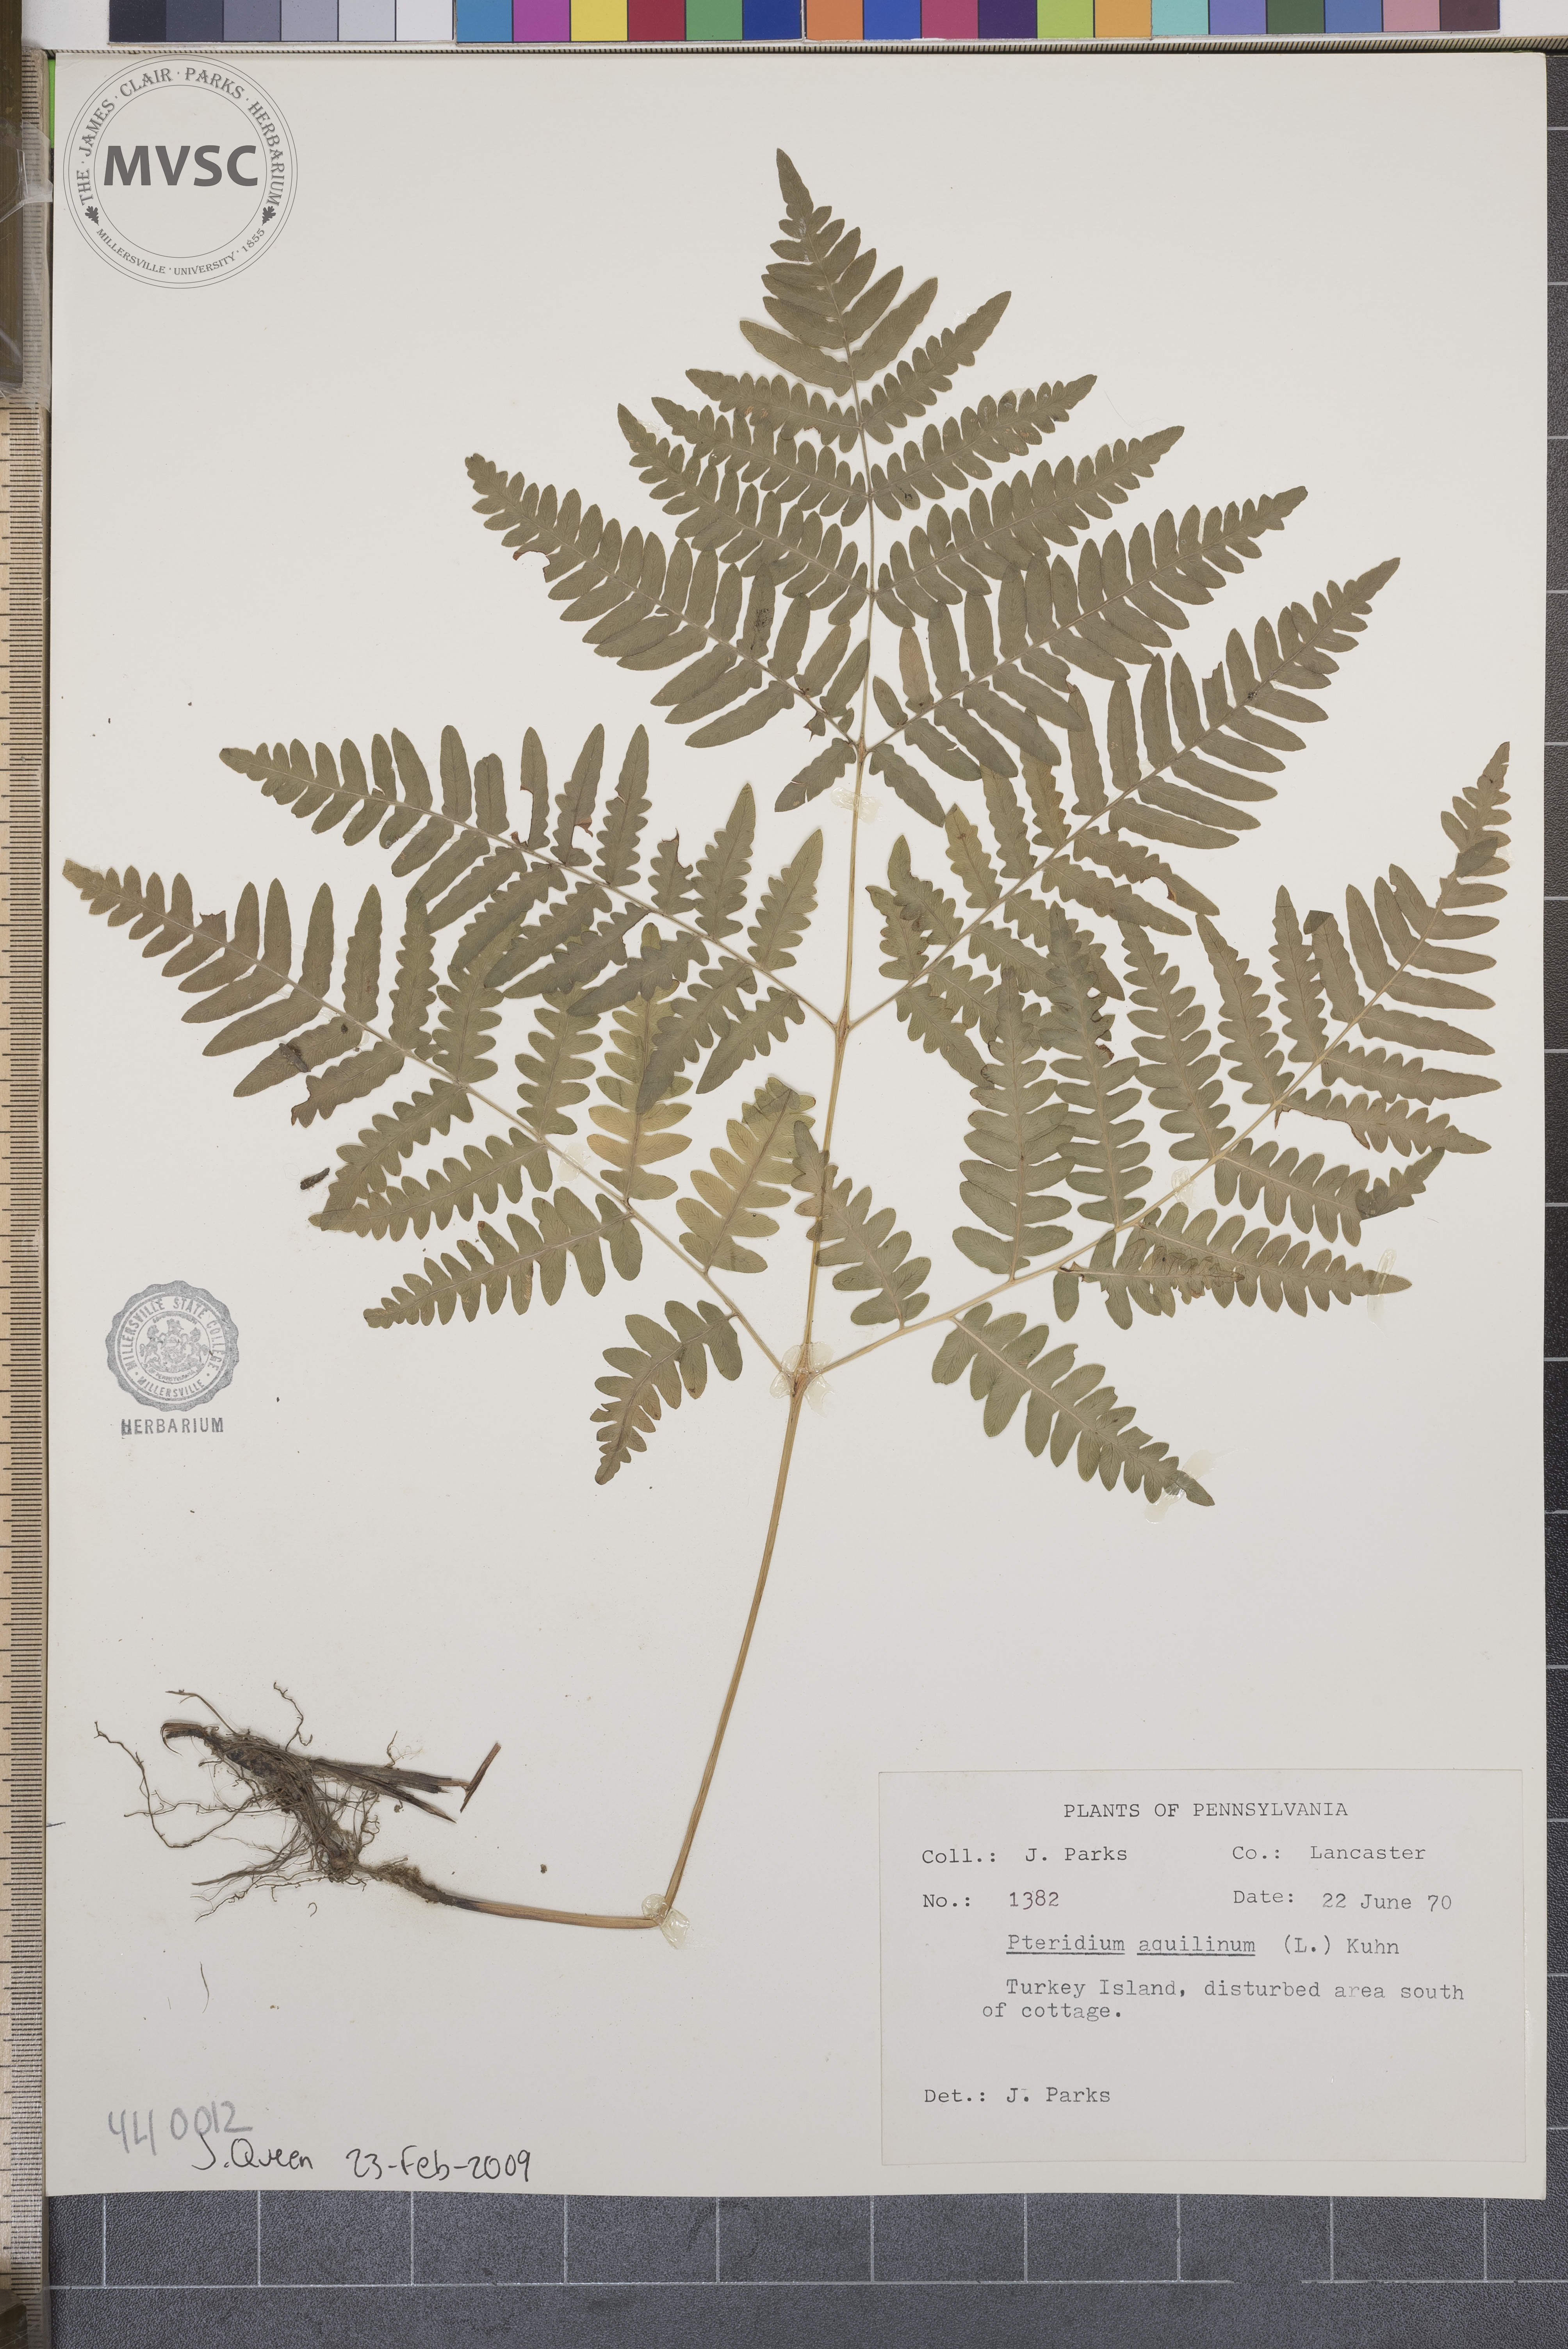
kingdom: Plantae
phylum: Tracheophyta
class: Polypodiopsida
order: Polypodiales
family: Dennstaedtiaceae
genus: Pteridium
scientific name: Pteridium aquilinum
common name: Bracken
